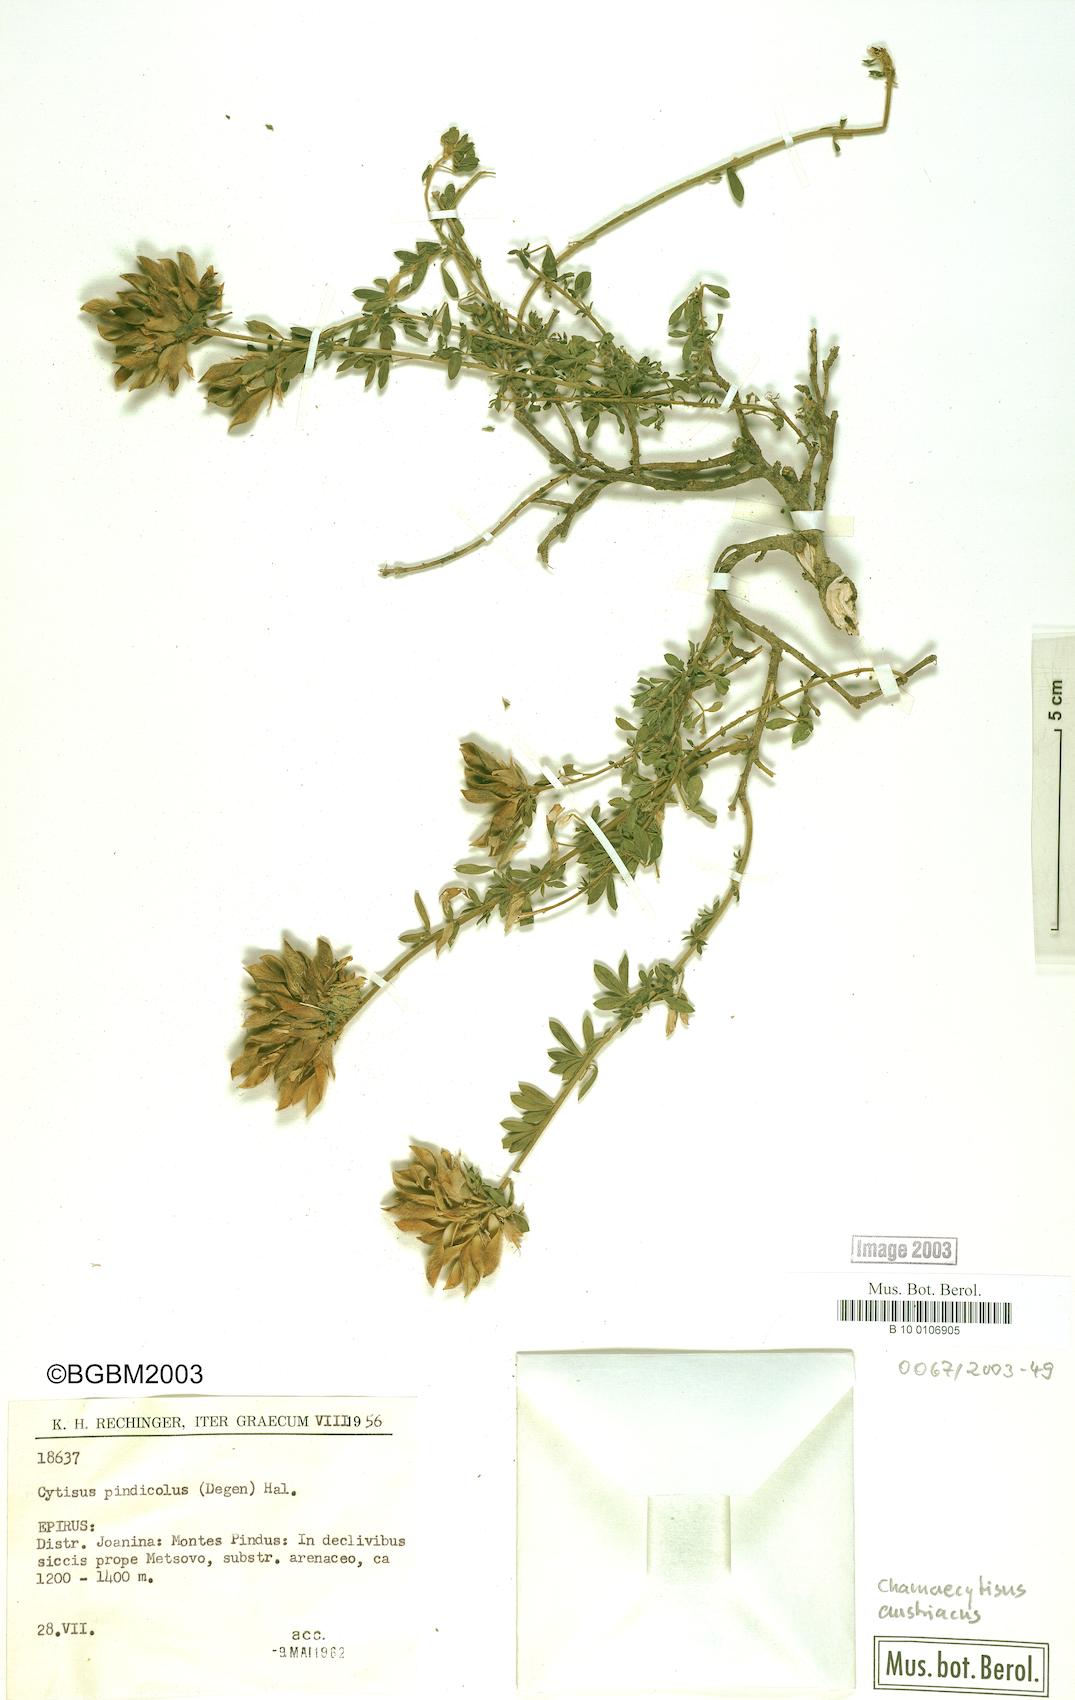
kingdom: Plantae
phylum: Tracheophyta
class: Magnoliopsida
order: Fabales
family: Fabaceae
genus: Chamaecytisus
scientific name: Chamaecytisus austriacus
